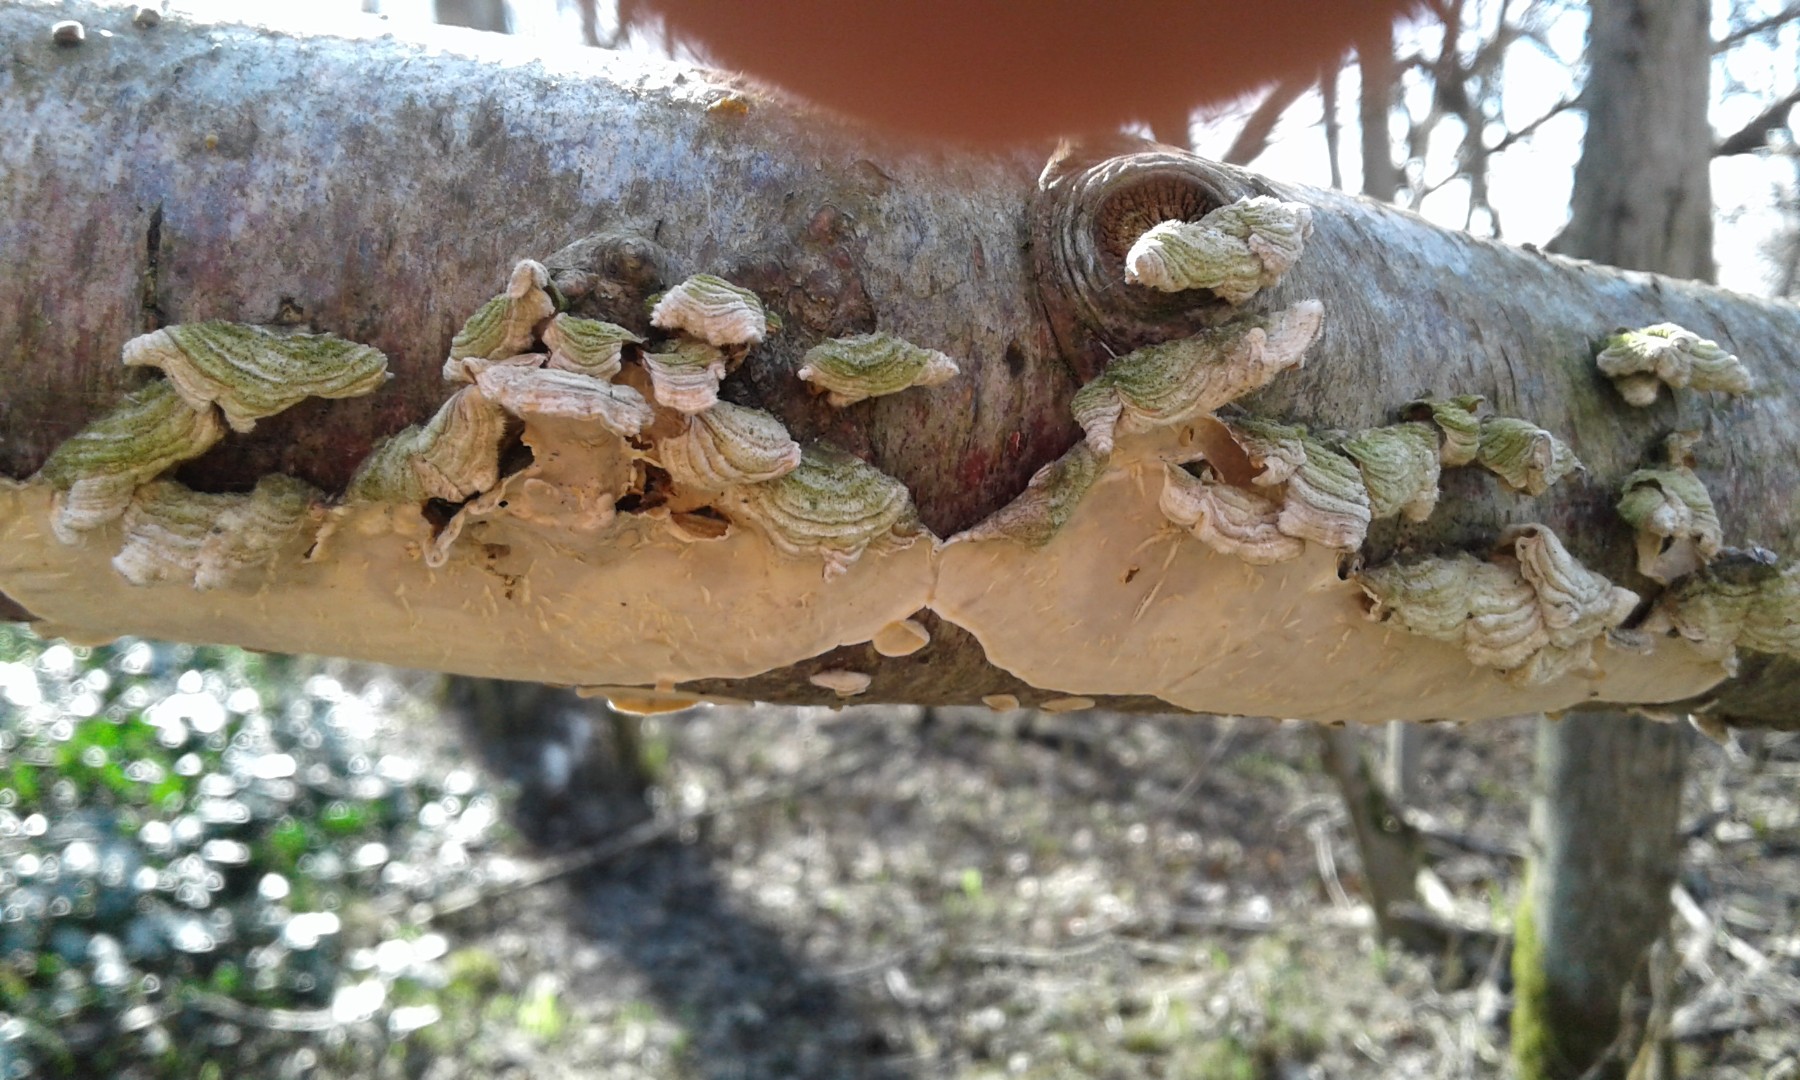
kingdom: Fungi
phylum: Basidiomycota
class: Agaricomycetes
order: Russulales
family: Stereaceae
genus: Stereum
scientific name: Stereum hirsutum
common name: håret lædersvamp
